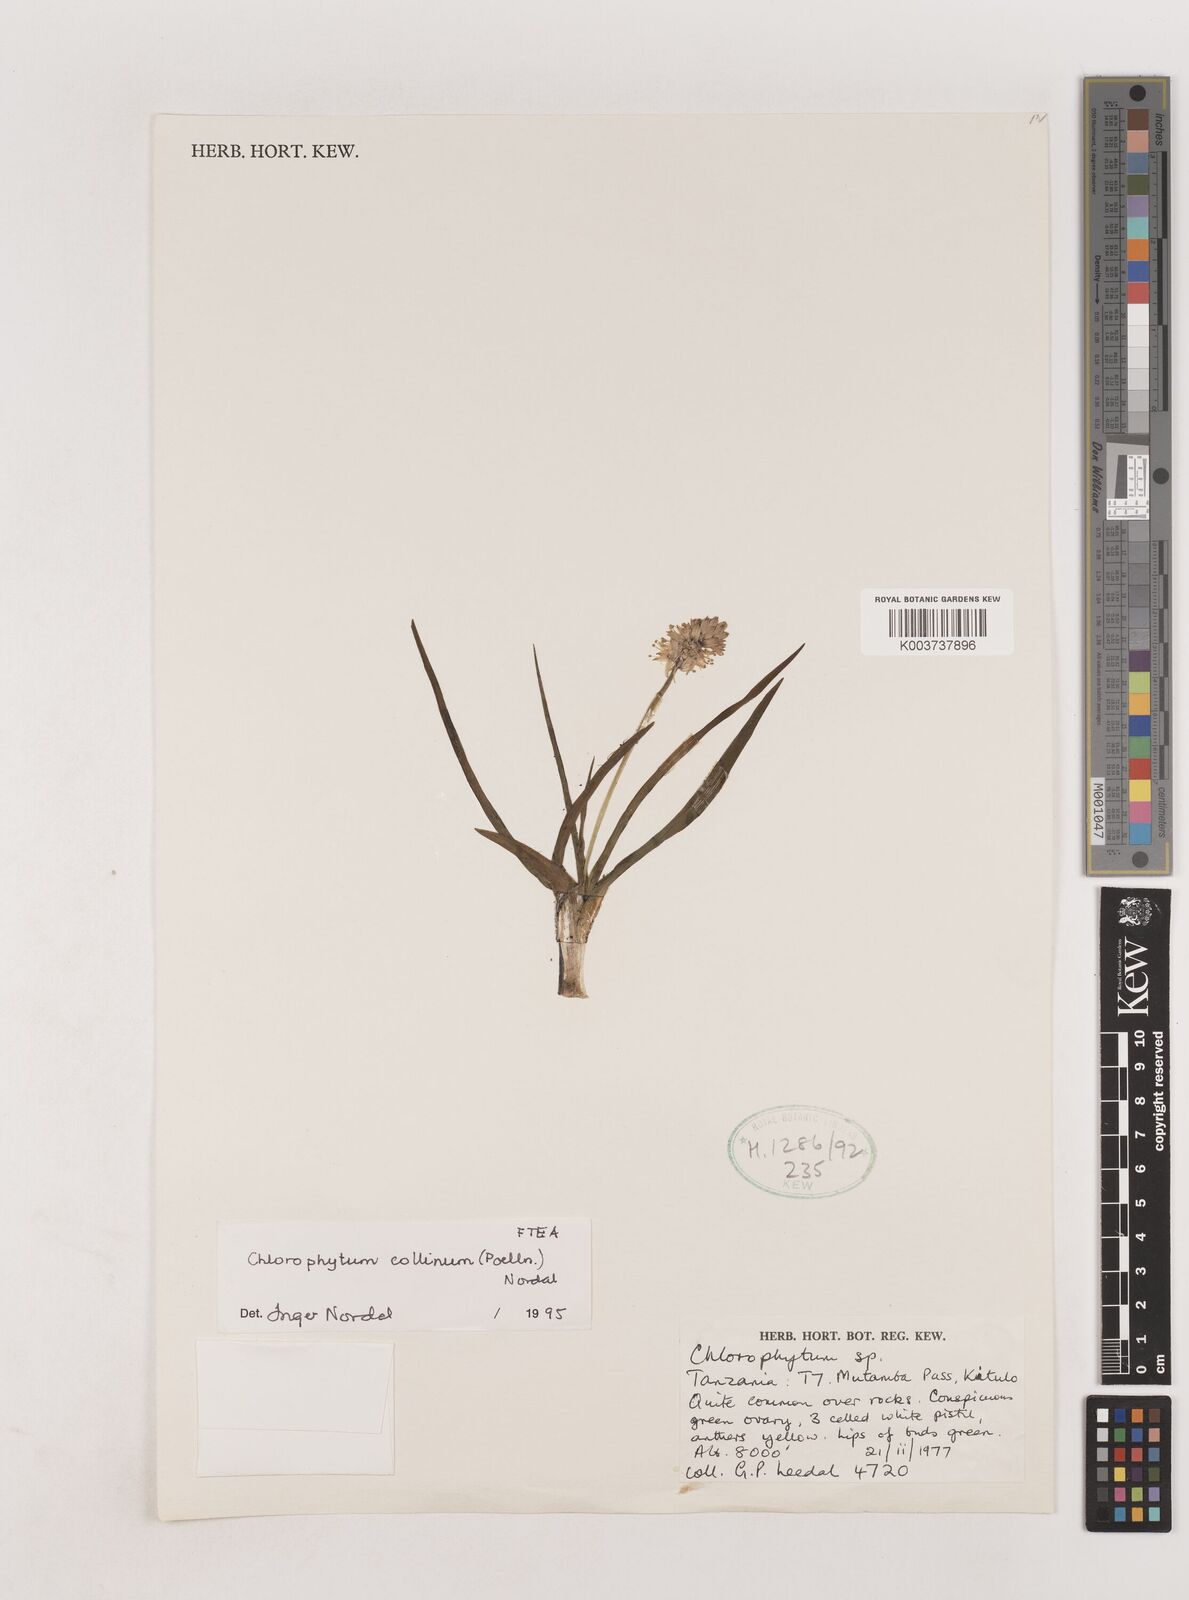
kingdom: Plantae
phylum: Tracheophyta
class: Liliopsida
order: Asparagales
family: Asparagaceae
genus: Chlorophytum
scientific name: Chlorophytum collinum
